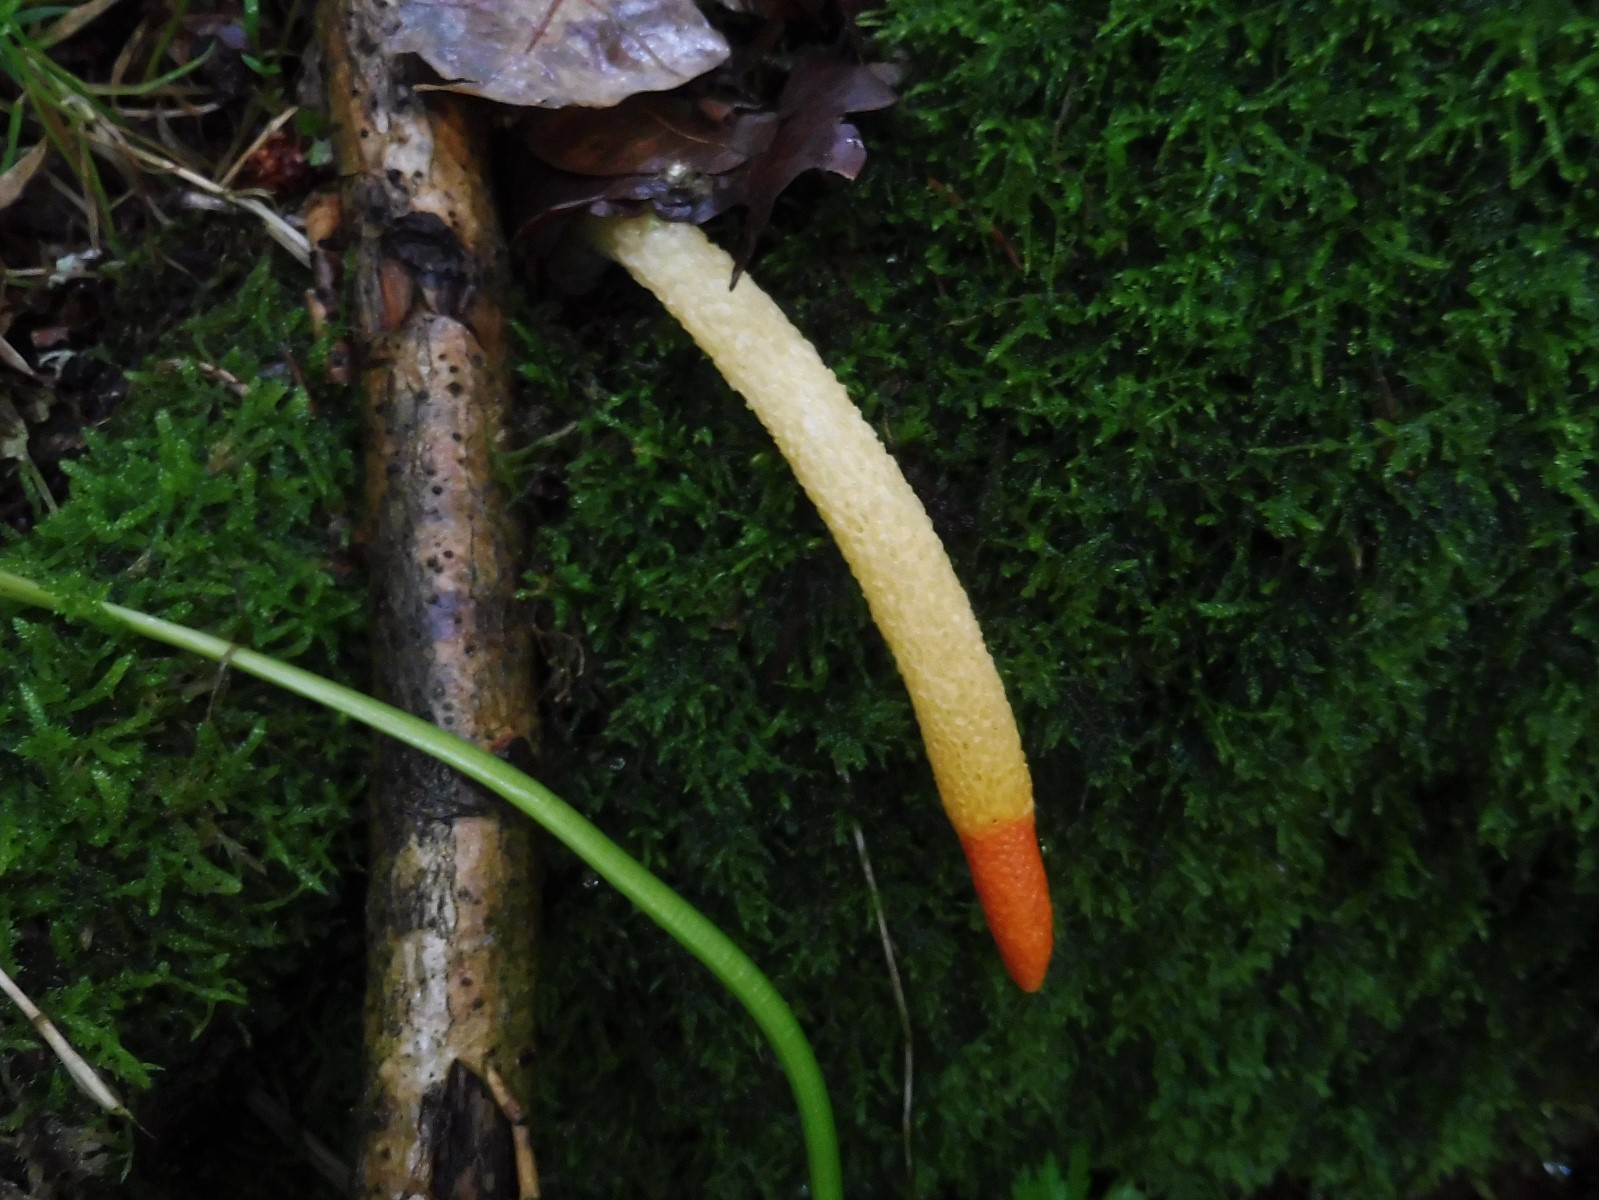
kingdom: Fungi
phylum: Basidiomycota
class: Agaricomycetes
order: Phallales
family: Phallaceae
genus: Mutinus
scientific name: Mutinus caninus
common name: hunde-stinksvamp
